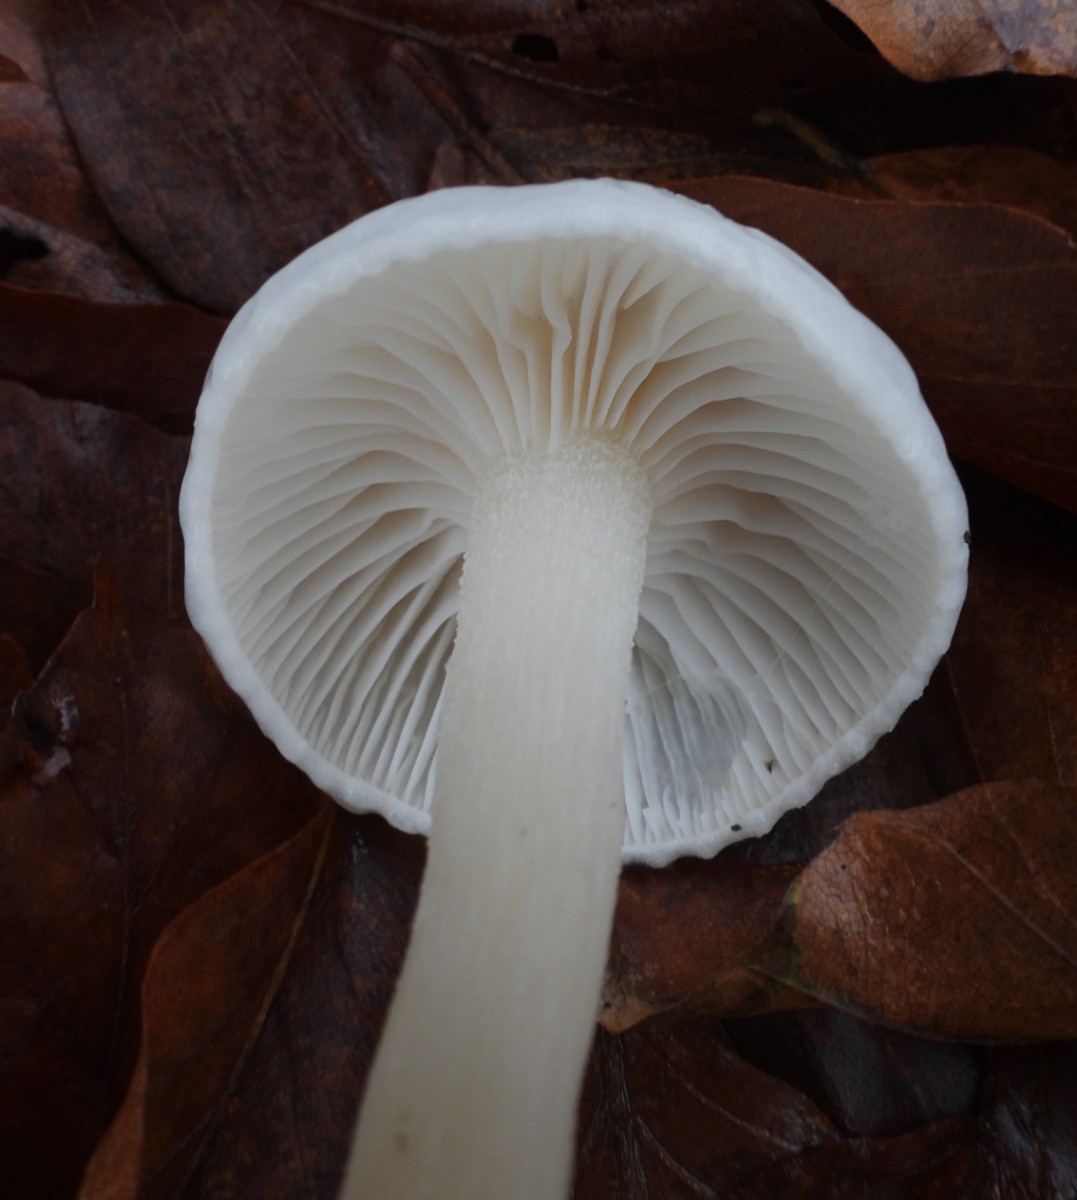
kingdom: Fungi
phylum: Basidiomycota
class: Agaricomycetes
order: Agaricales
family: Hygrophoraceae
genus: Hygrophorus
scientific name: Hygrophorus eburneus
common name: elfenbens-sneglehat
